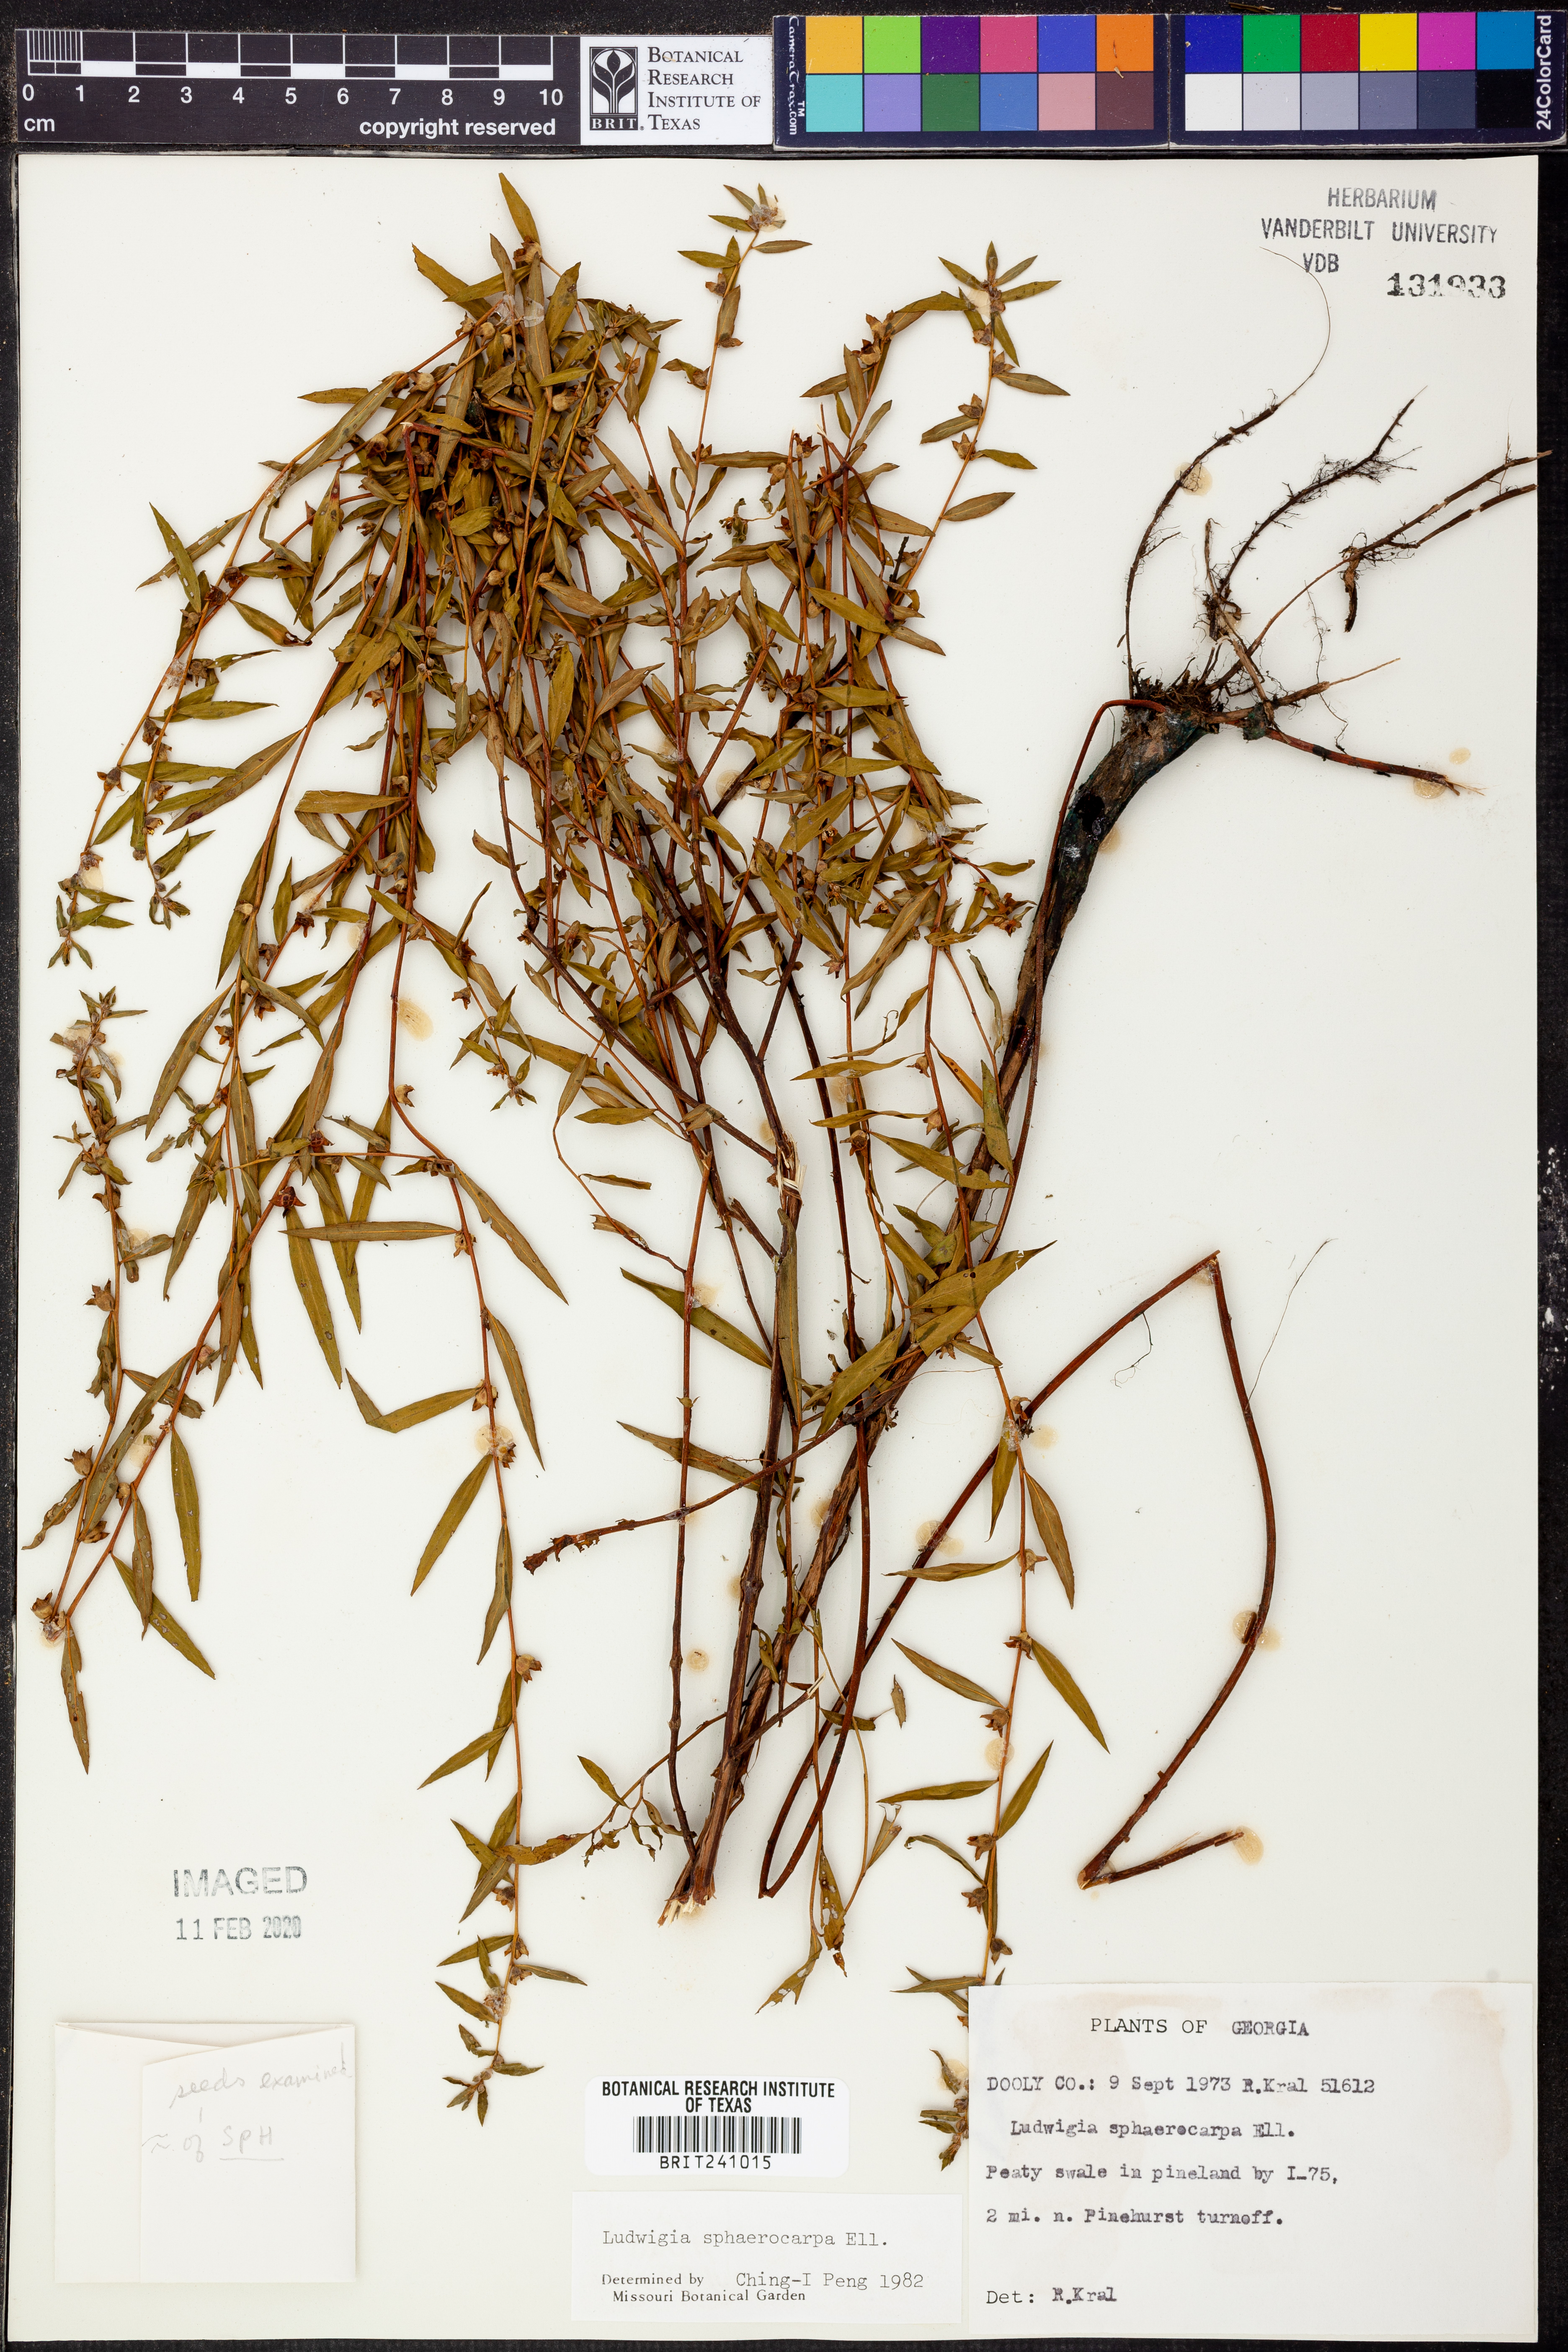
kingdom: Plantae
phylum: Tracheophyta
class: Magnoliopsida
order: Myrtales
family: Onagraceae
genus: Ludwigia
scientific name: Ludwigia sphaerocarpa
